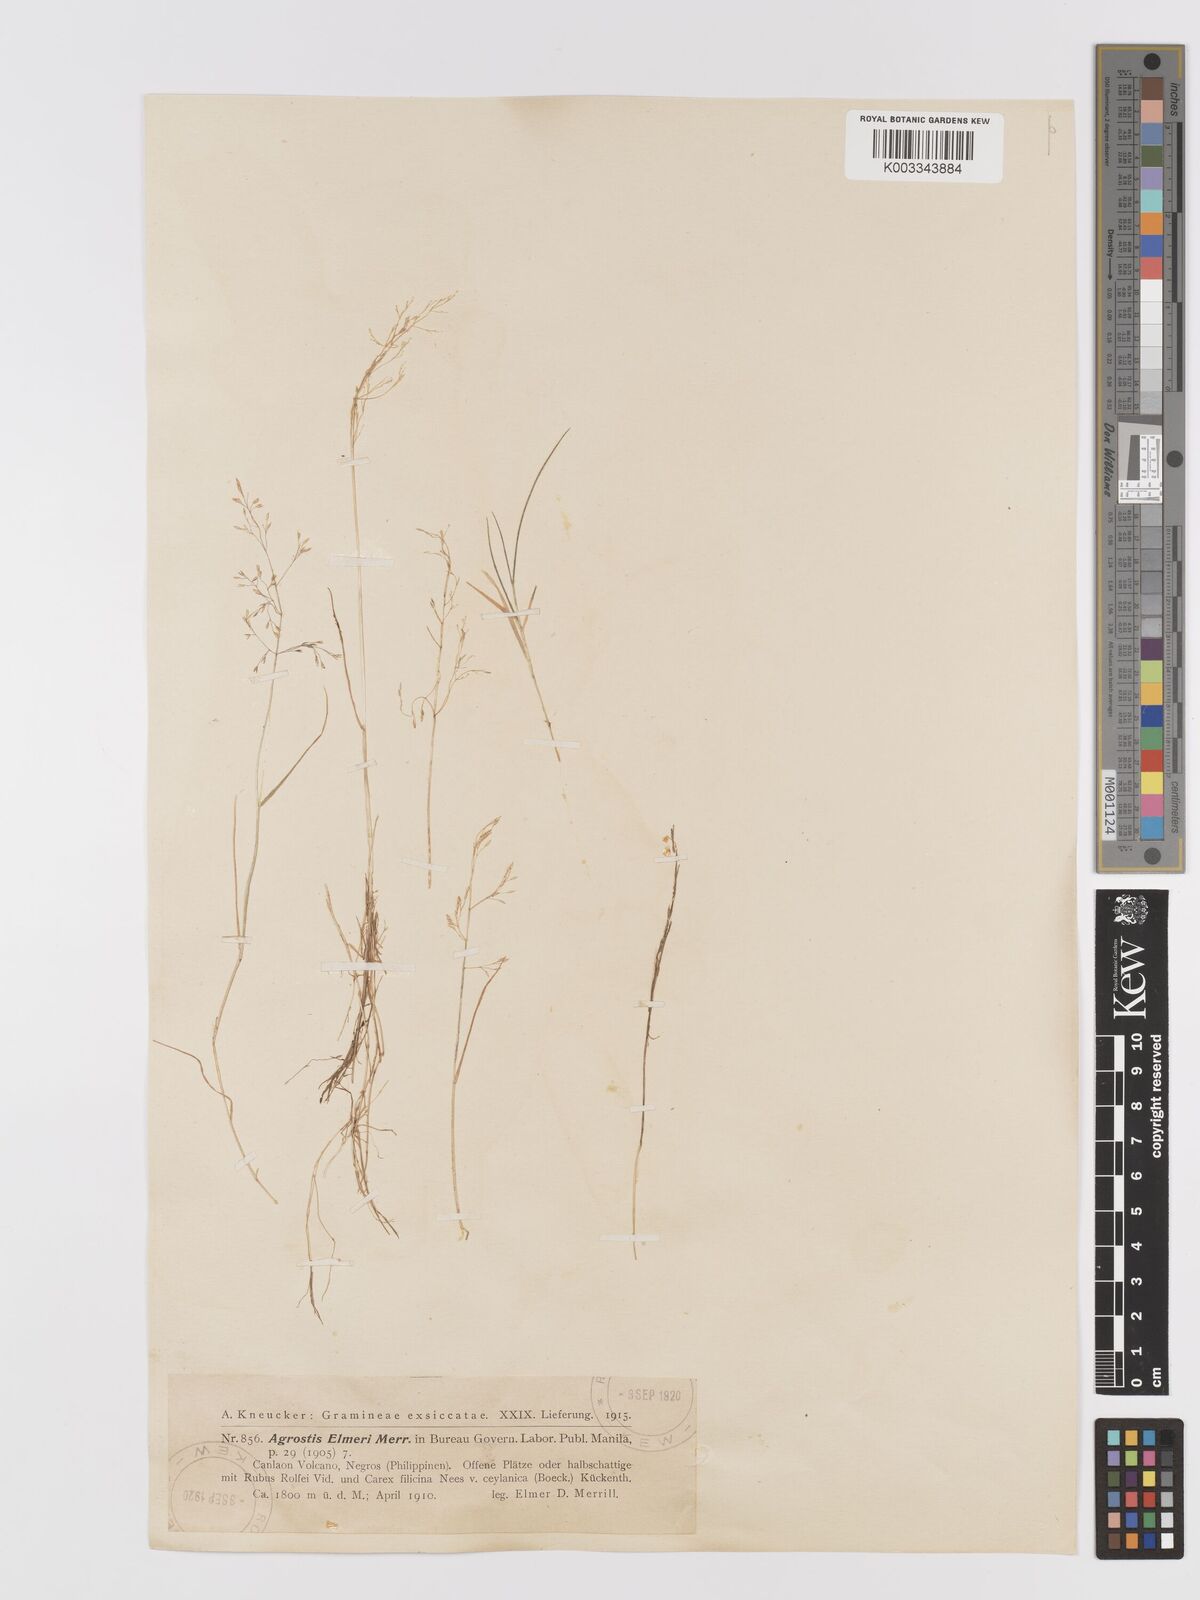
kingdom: Plantae
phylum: Tracheophyta
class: Liliopsida
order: Poales
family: Poaceae
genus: Agrostis
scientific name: Agrostis infirma
